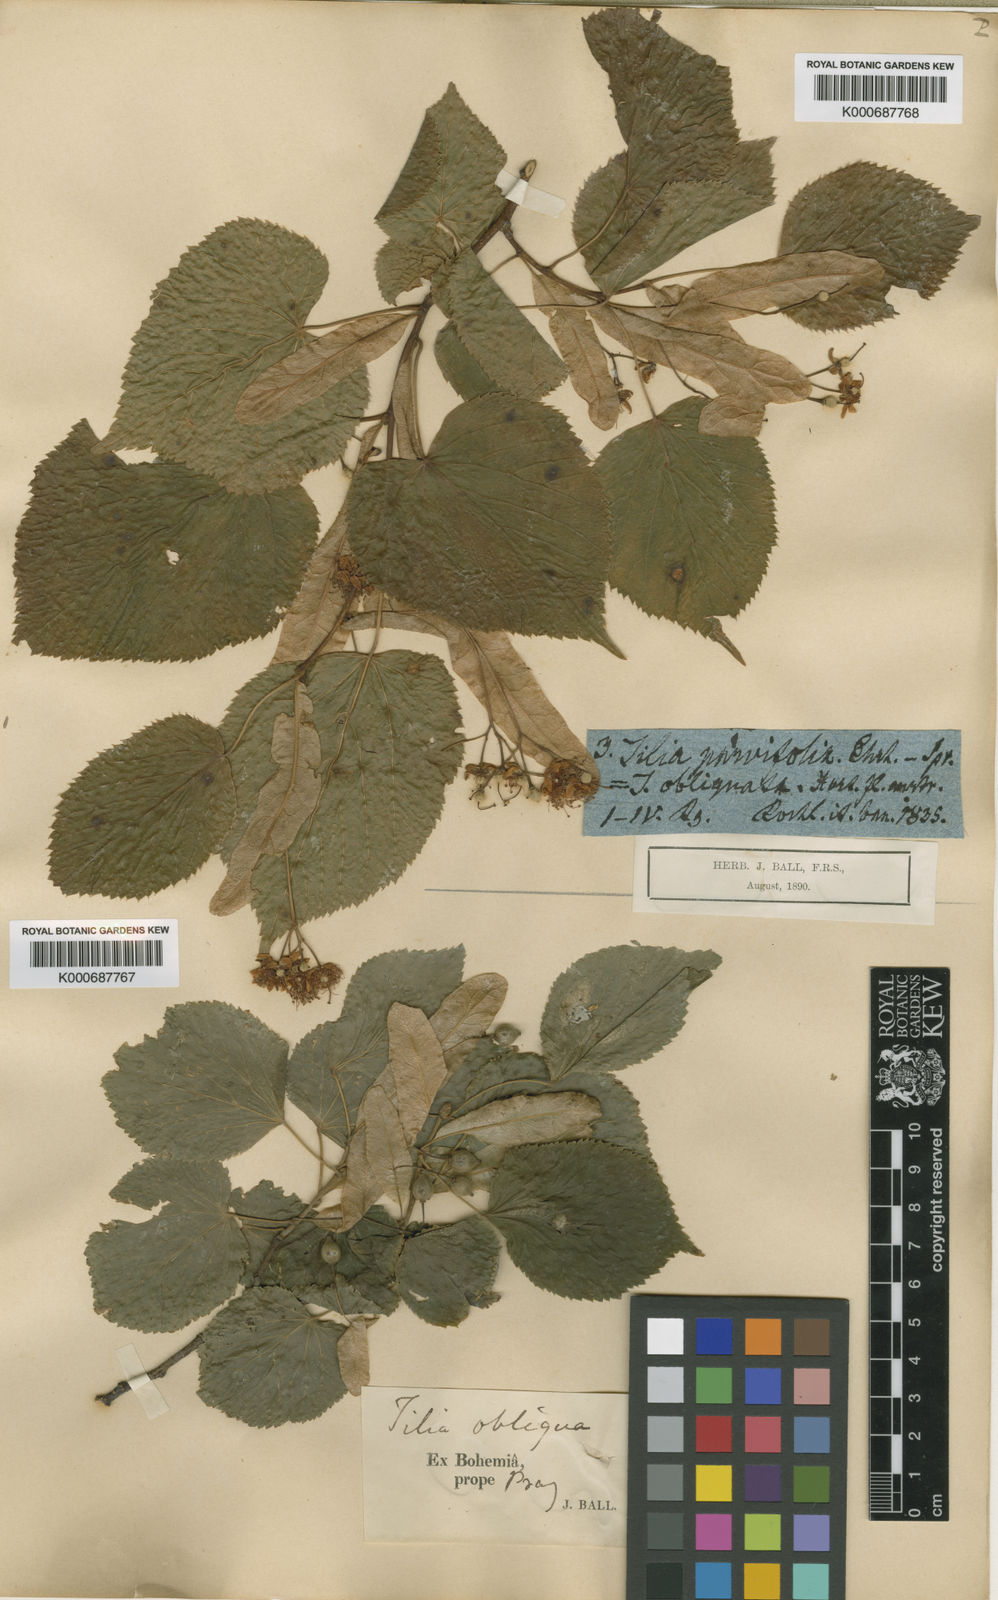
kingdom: Plantae
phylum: Tracheophyta
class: Magnoliopsida
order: Malvales
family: Malvaceae
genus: Tilia
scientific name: Tilia platyphyllos
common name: Large-leaved lime
